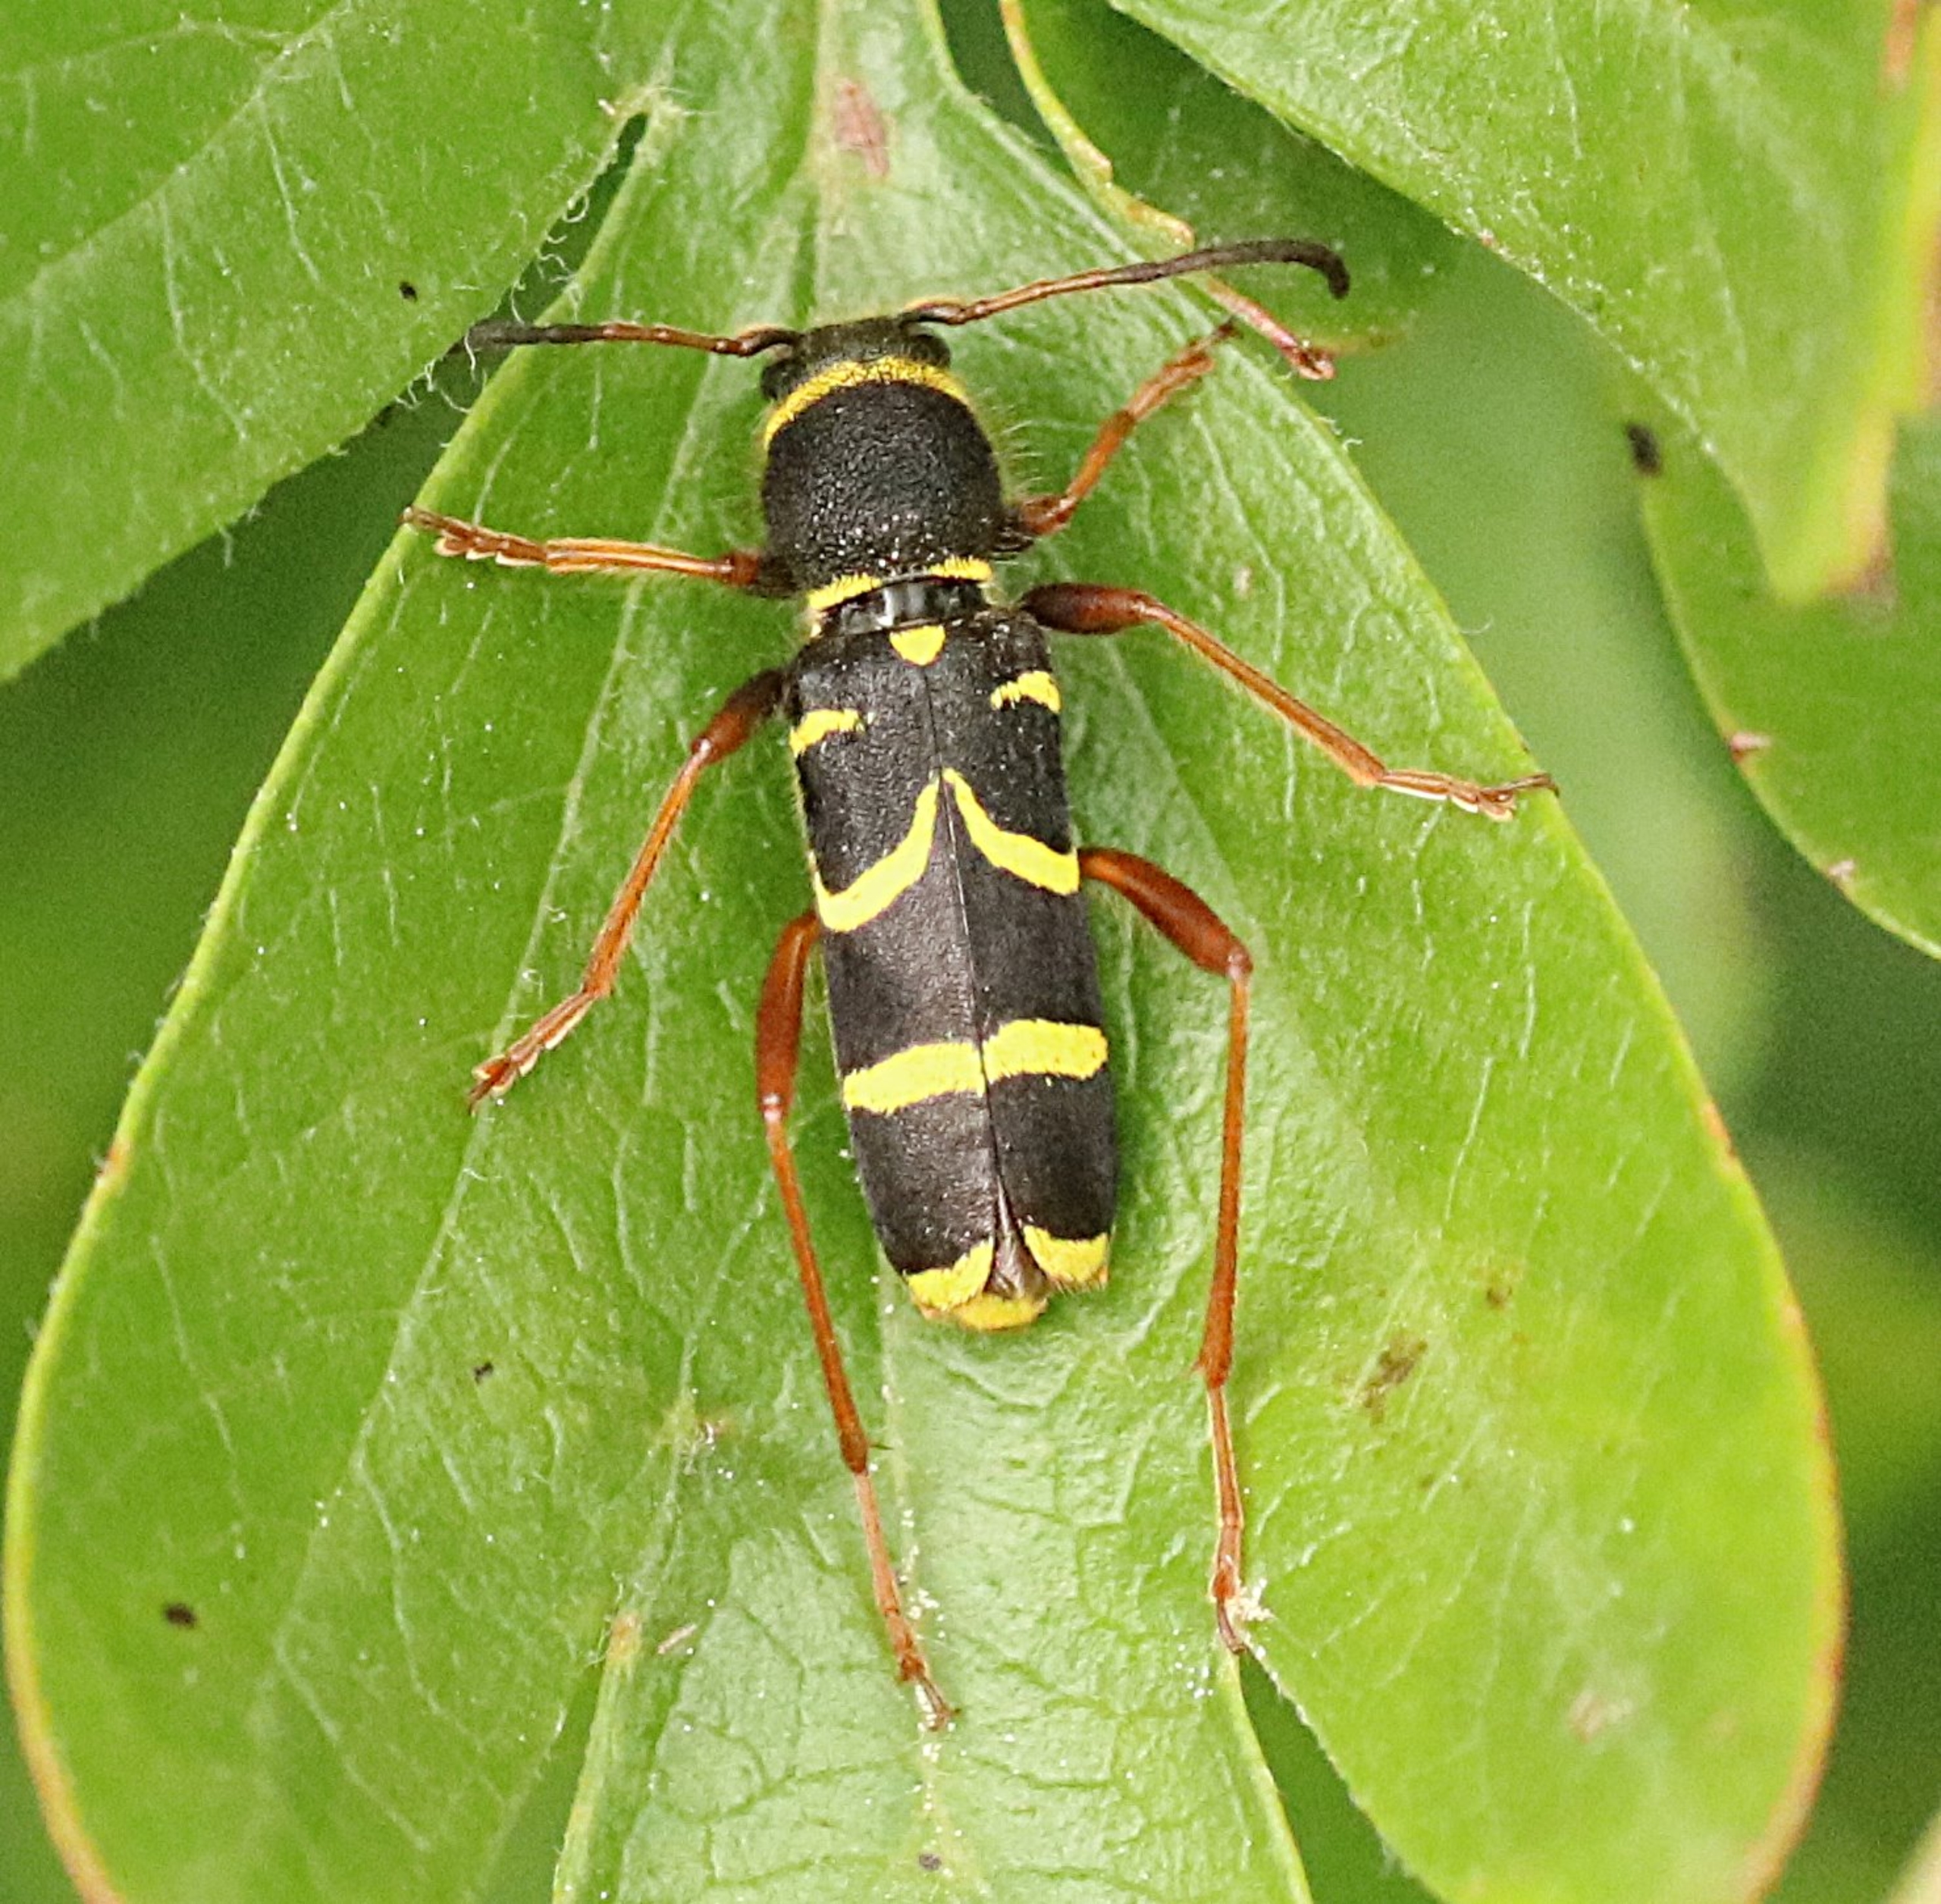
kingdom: Animalia
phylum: Arthropoda
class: Insecta
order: Coleoptera
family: Cerambycidae
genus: Clytus
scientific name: Clytus arietis
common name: Lille hvepsebuk
